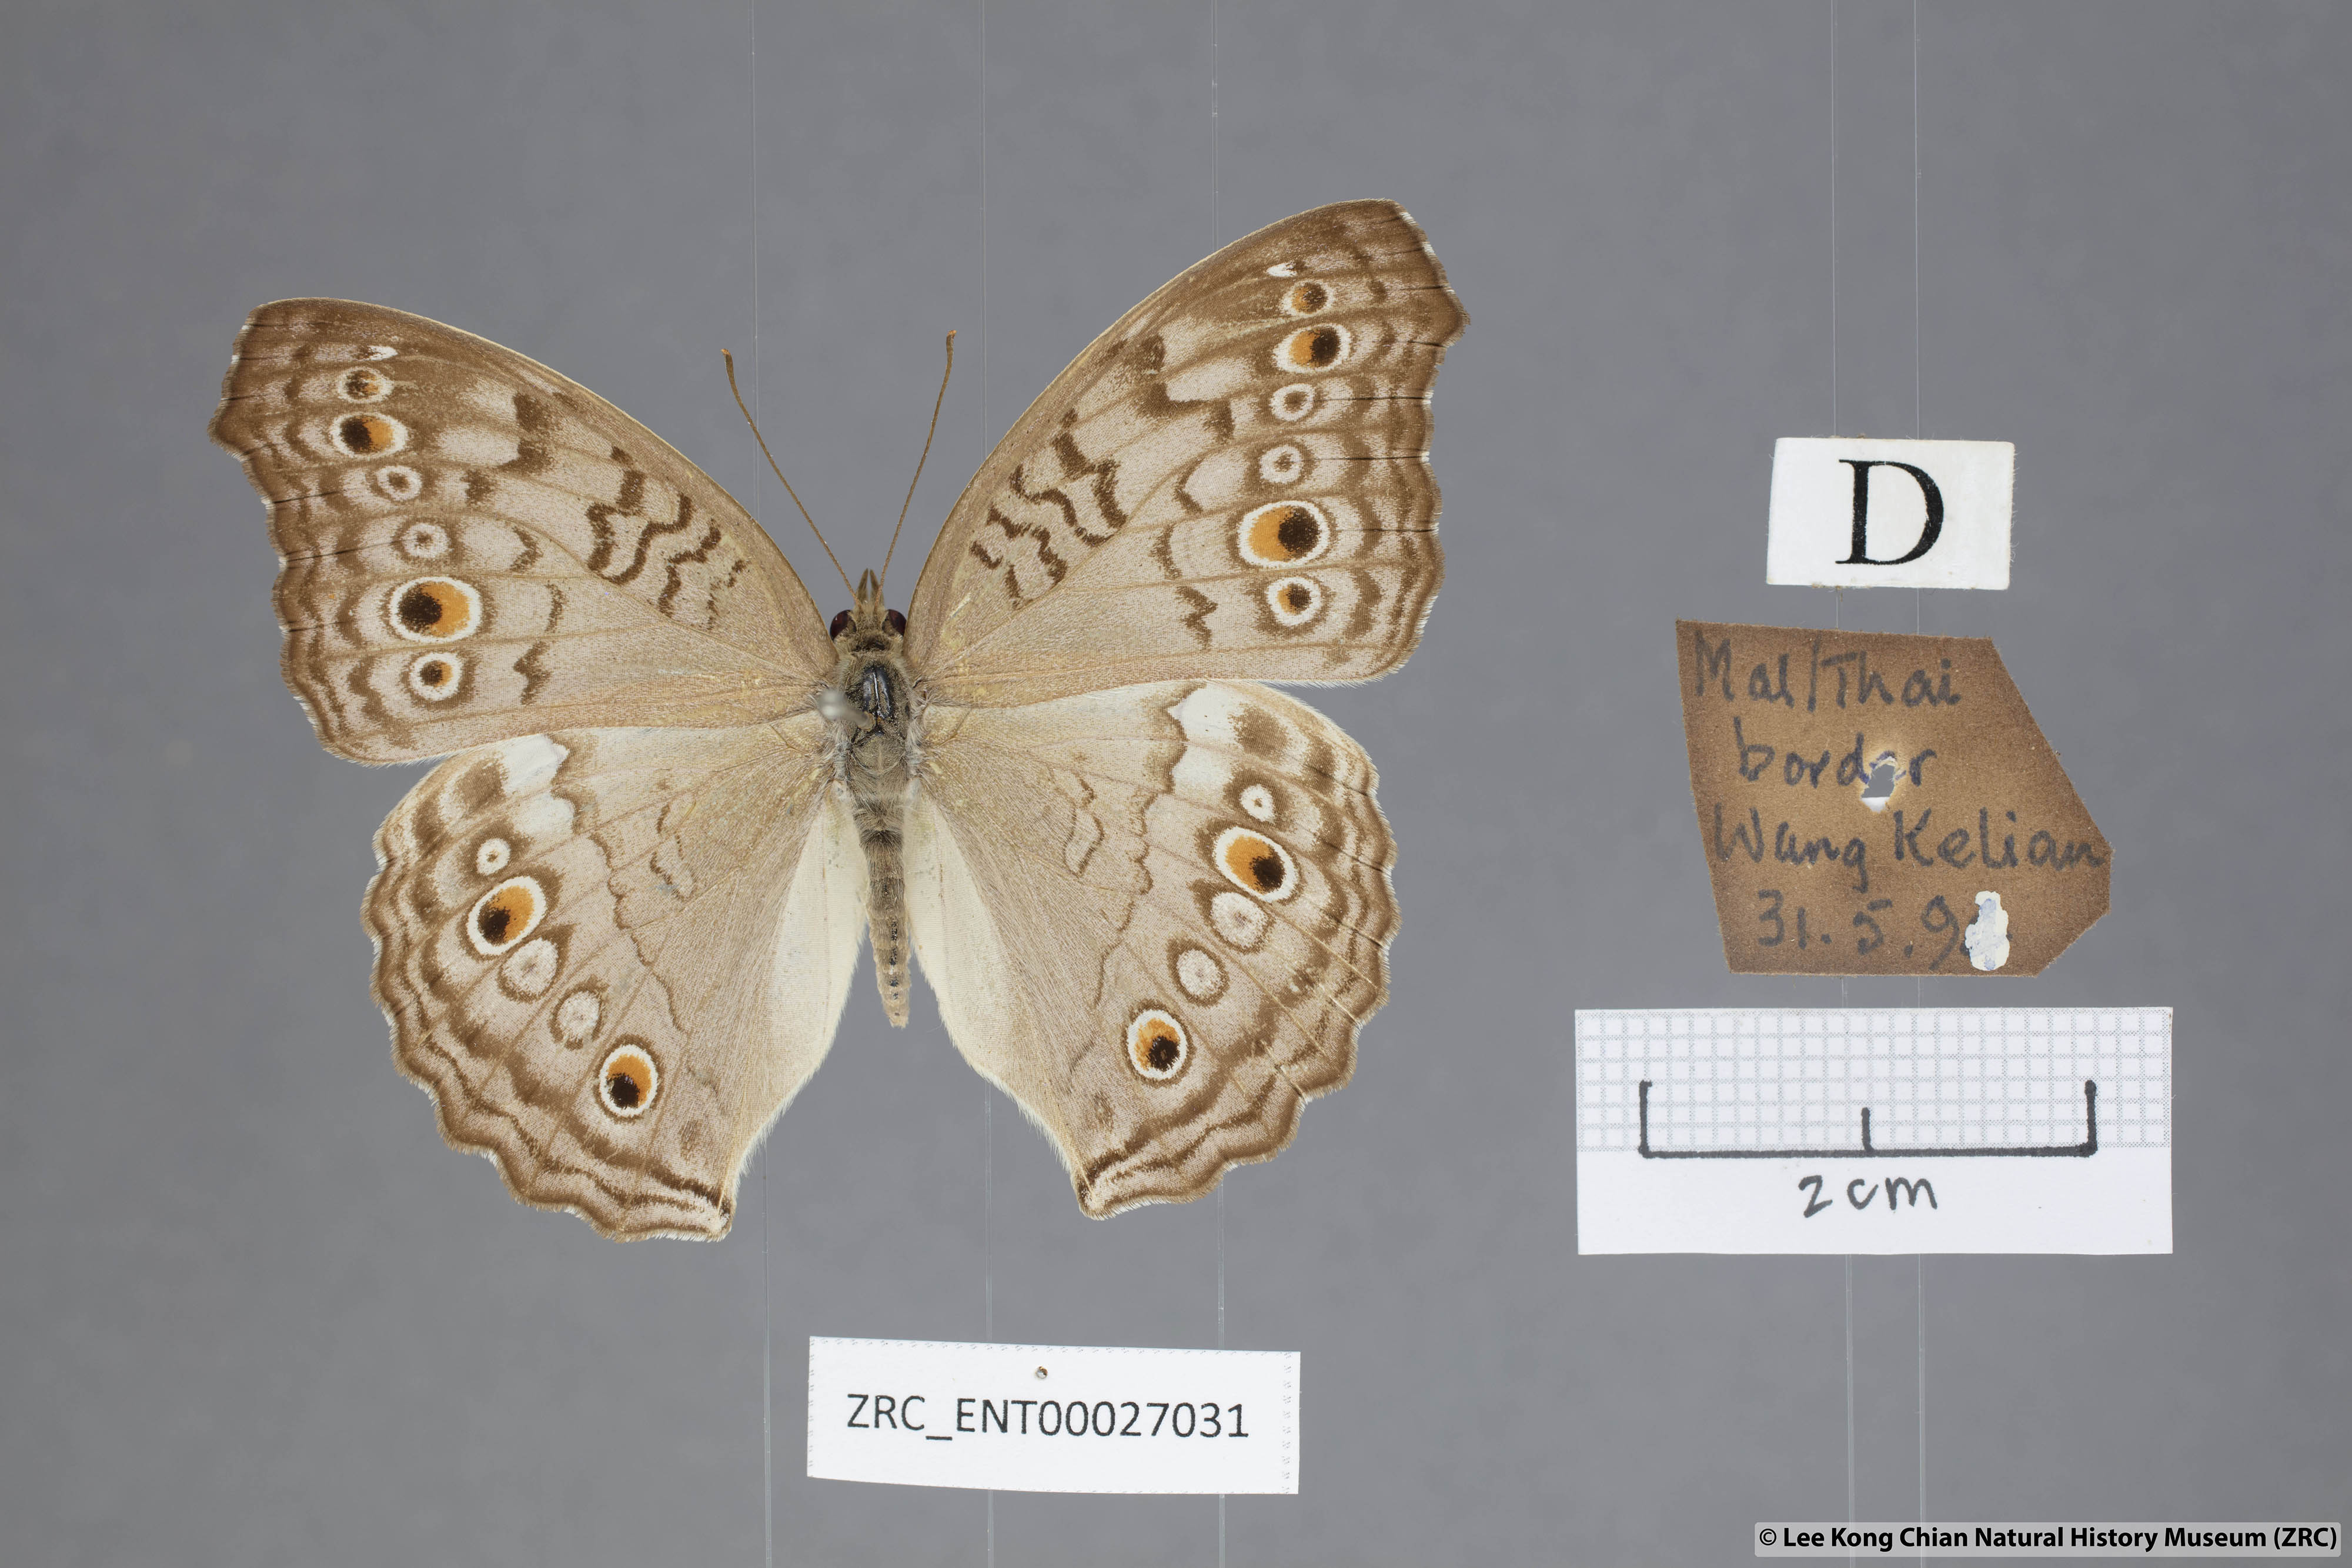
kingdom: Animalia
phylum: Arthropoda
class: Insecta
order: Lepidoptera
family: Nymphalidae
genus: Junonia
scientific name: Junonia atlites
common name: Grey pansy
